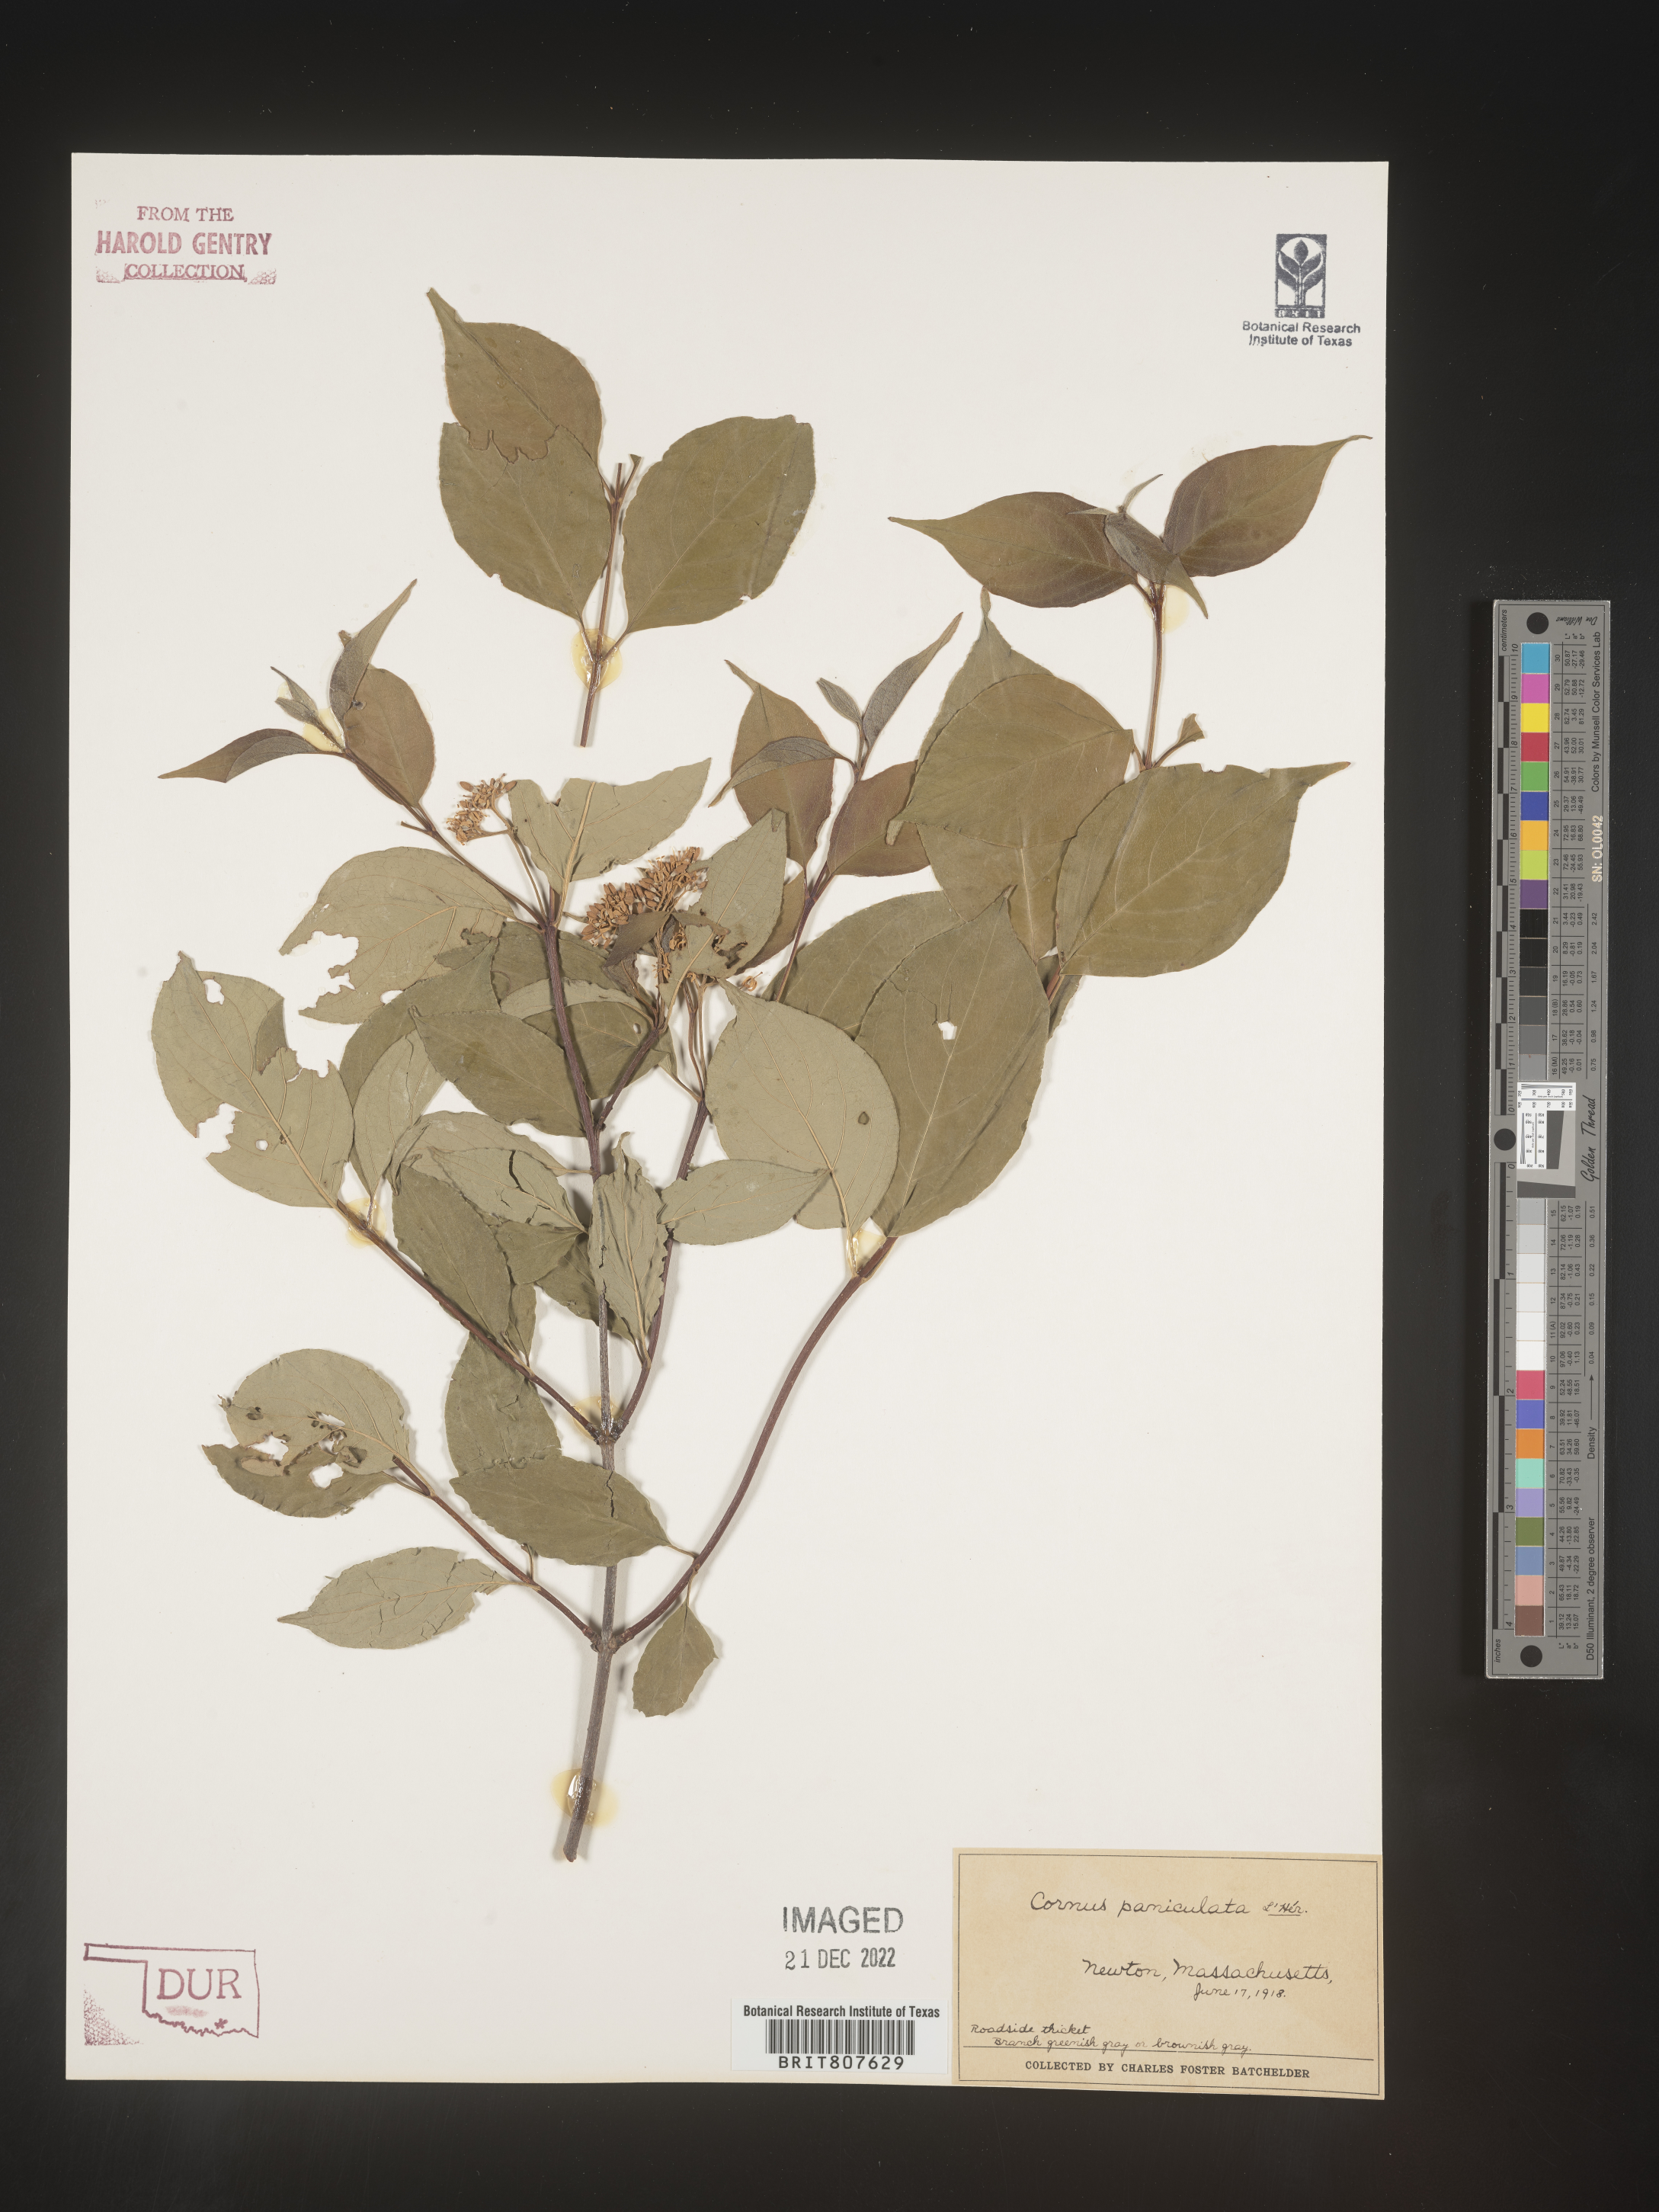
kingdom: Plantae
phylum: Tracheophyta
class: Magnoliopsida
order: Cornales
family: Cornaceae
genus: Cornus
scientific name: Cornus
